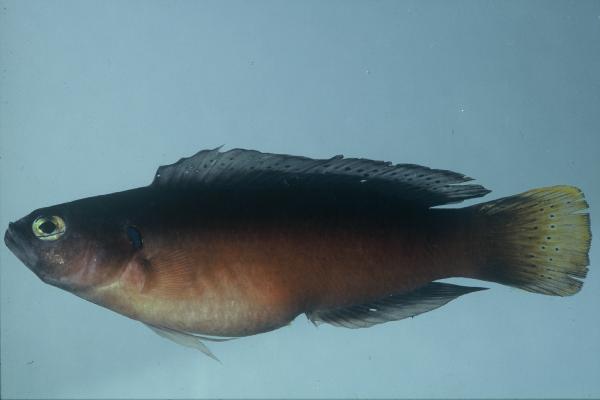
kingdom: Animalia
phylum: Chordata
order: Perciformes
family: Pseudochromidae
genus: Pseudochromis
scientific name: Pseudochromis melas
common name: Dark dottyback
